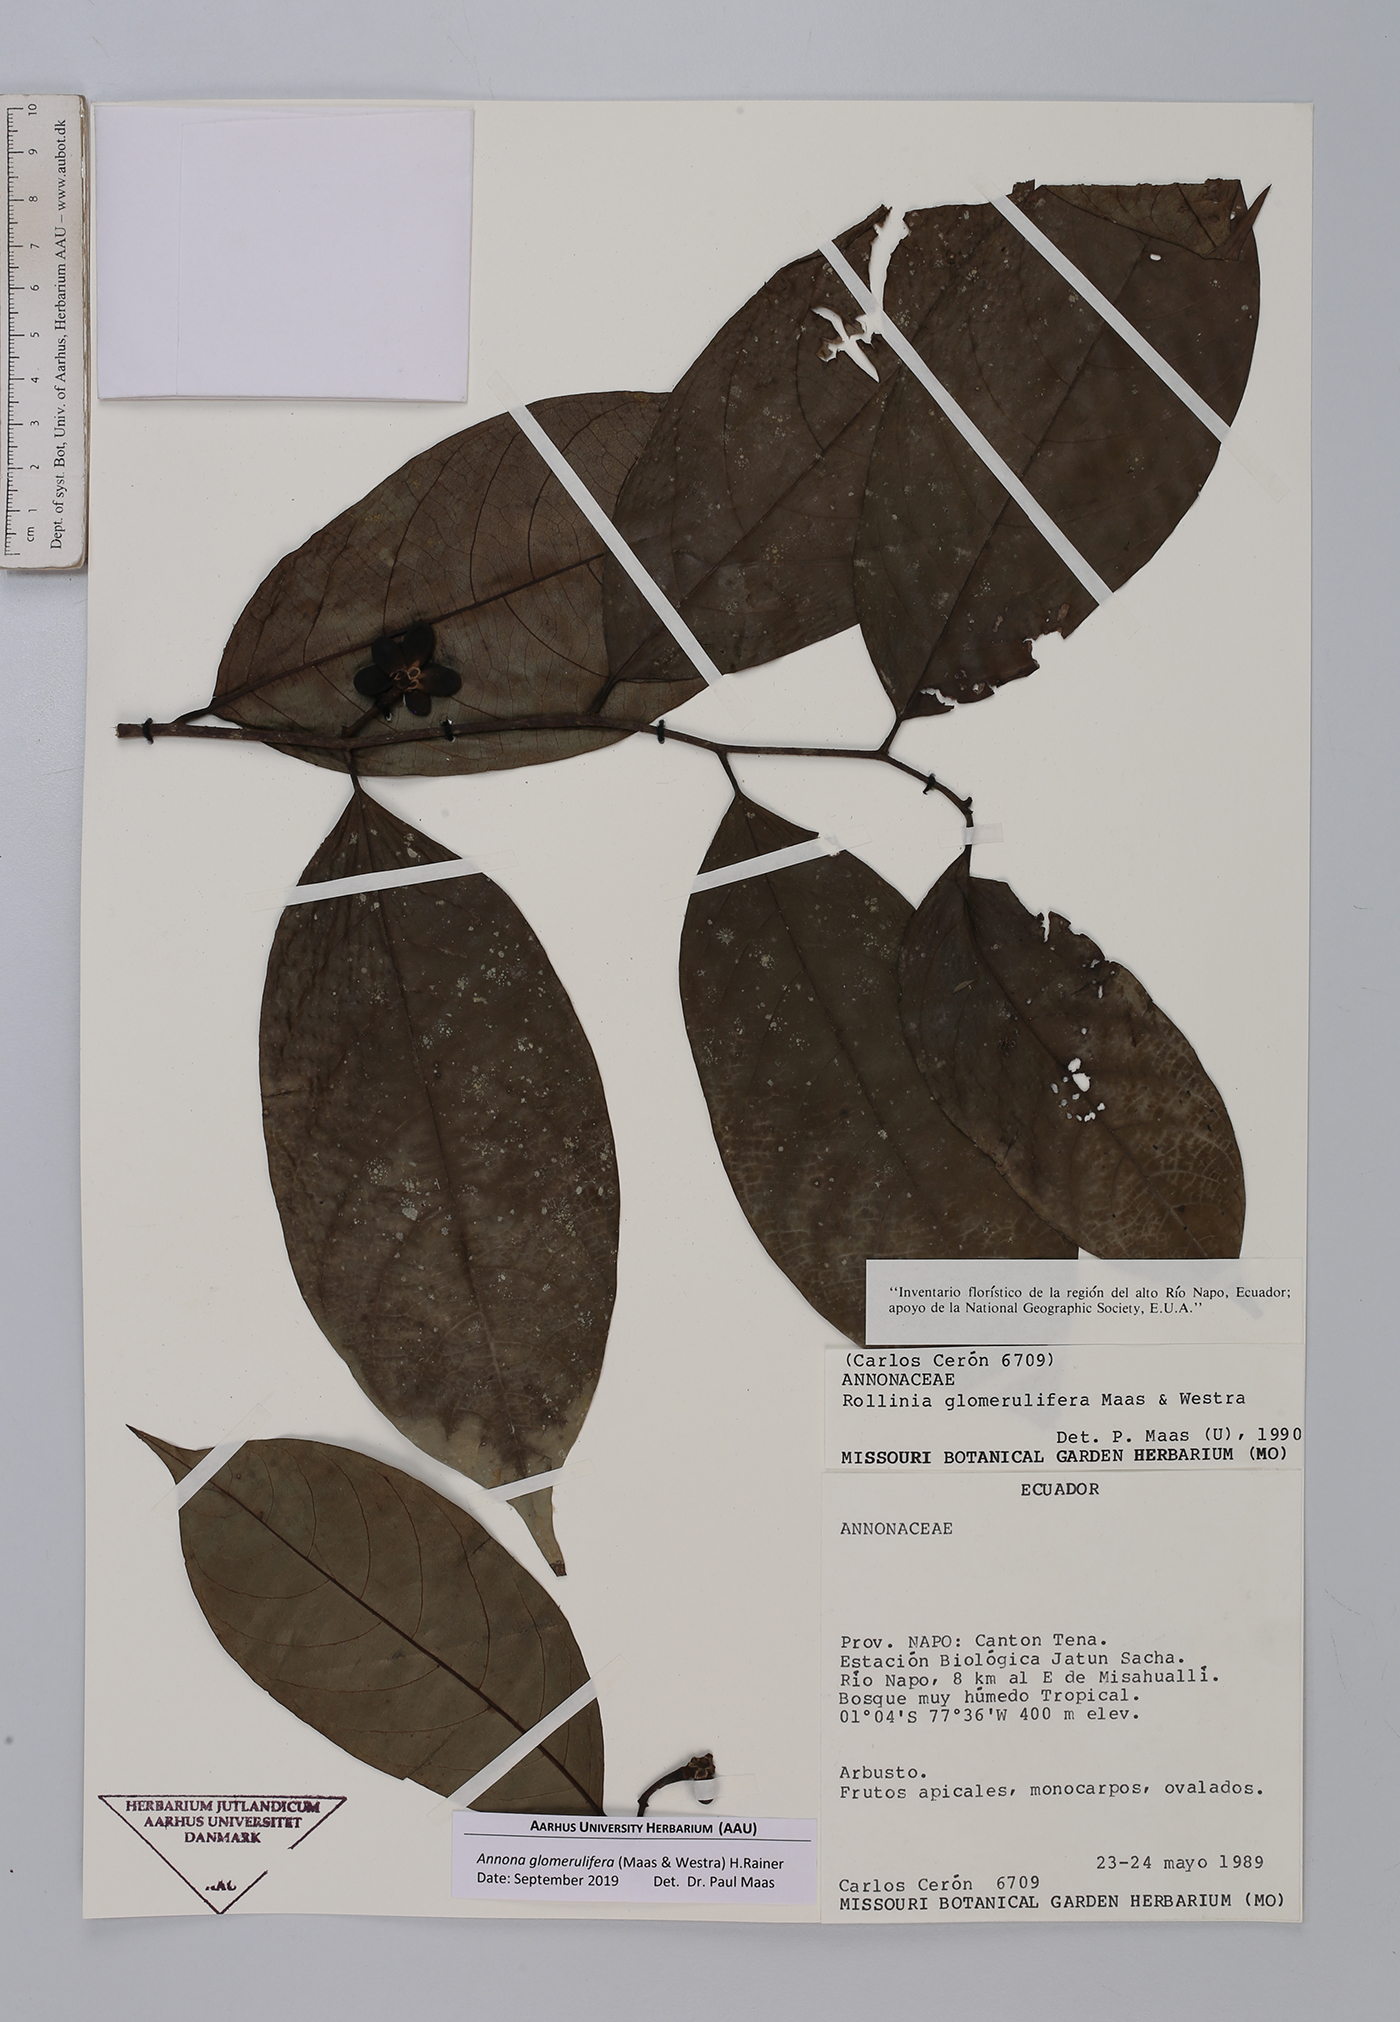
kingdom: Plantae
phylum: Tracheophyta
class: Magnoliopsida
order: Magnoliales
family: Annonaceae
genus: Annona
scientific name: Annona glomerulifera
